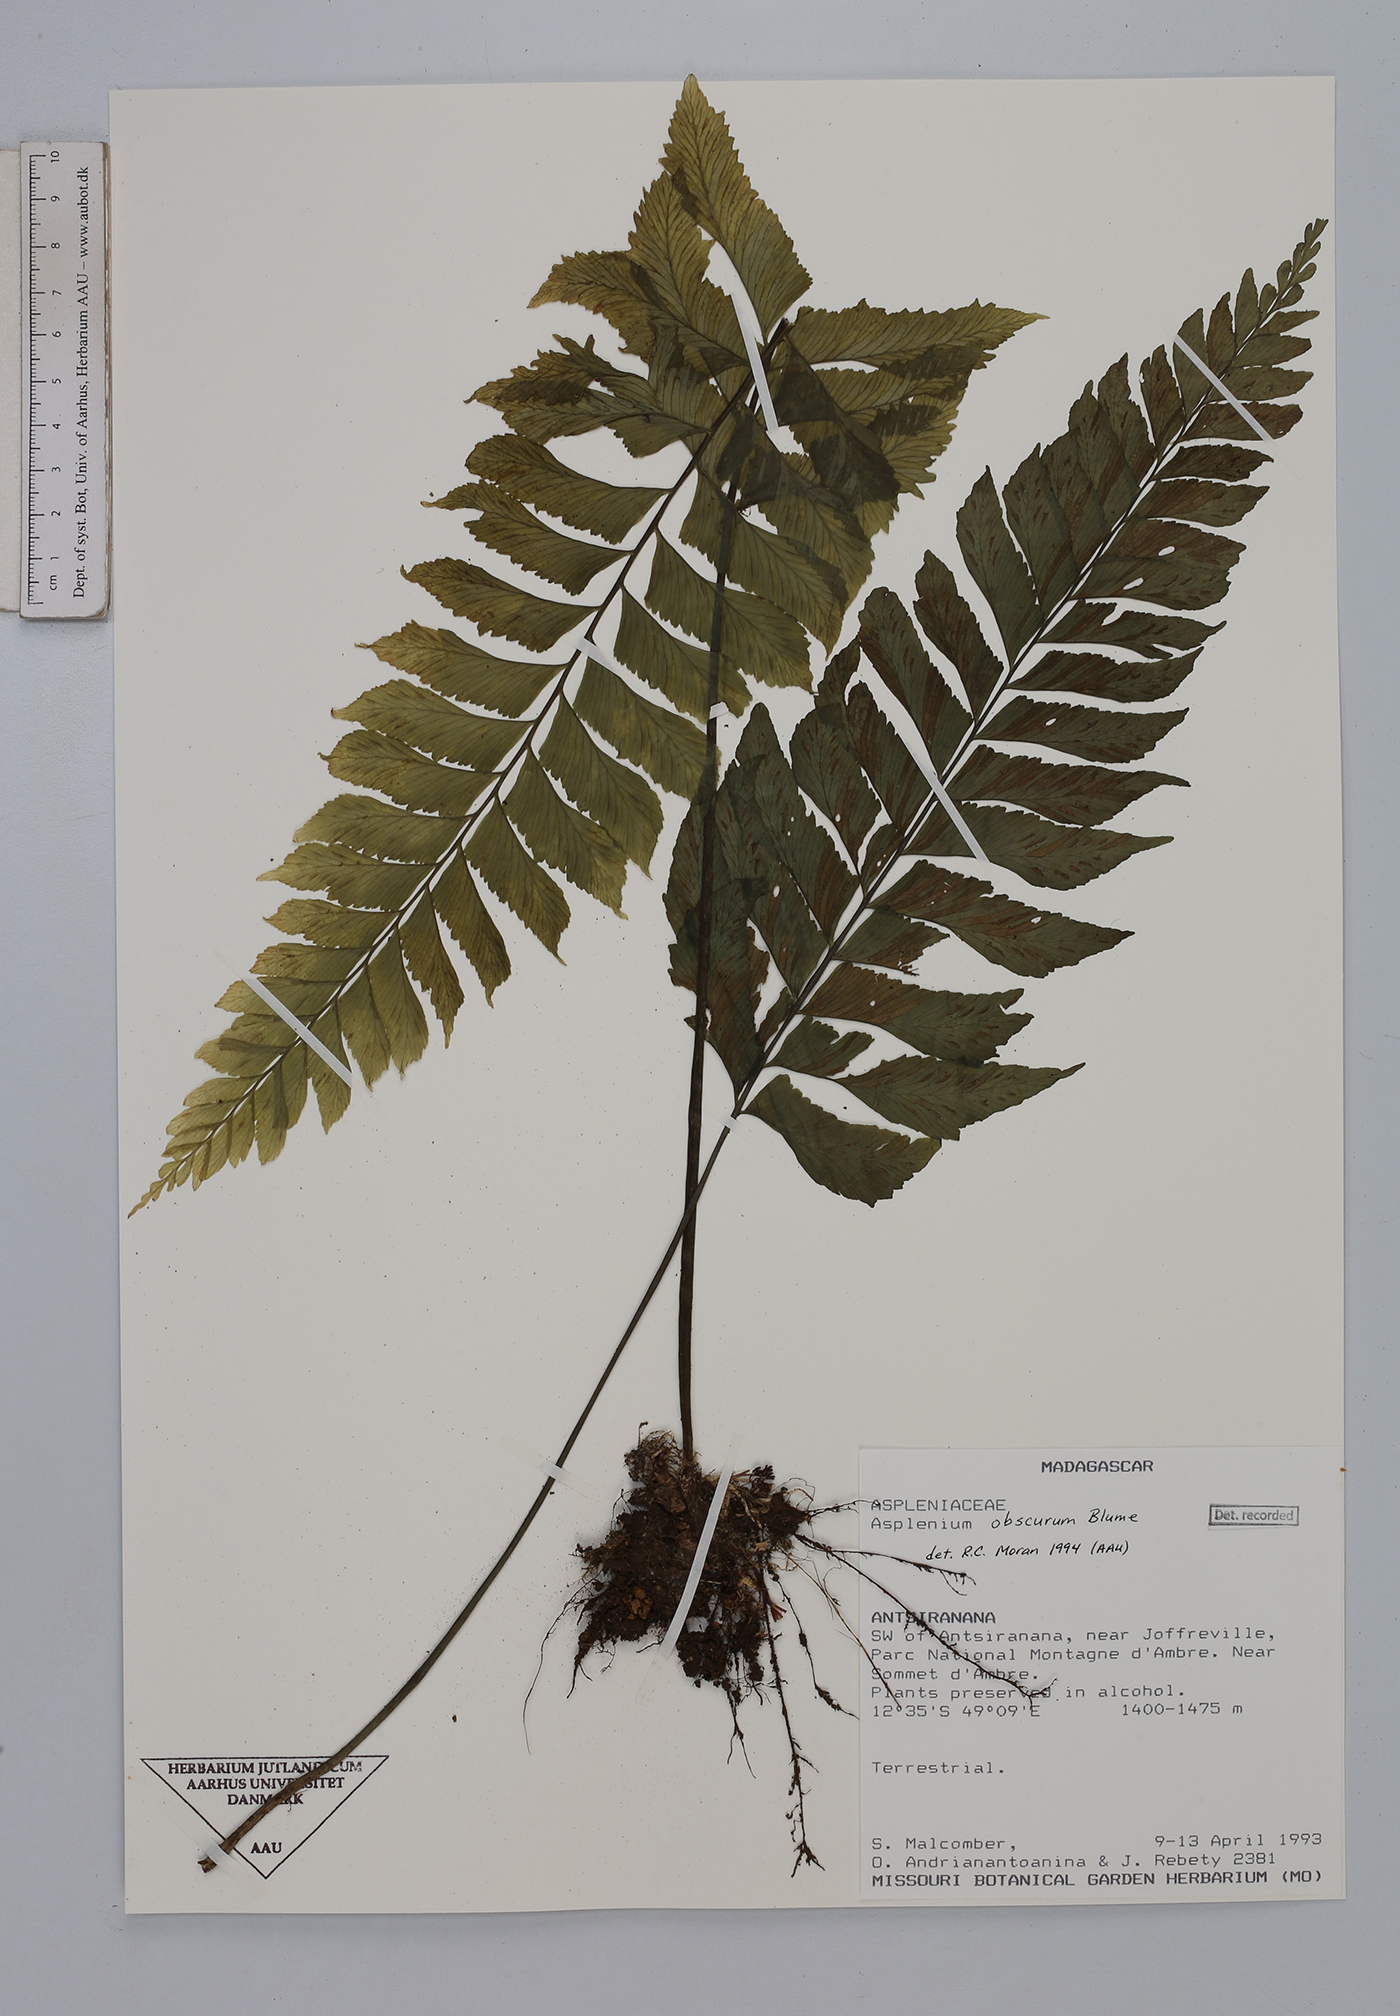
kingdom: Plantae
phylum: Tracheophyta
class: Polypodiopsida
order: Polypodiales
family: Aspleniaceae
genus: Hymenasplenium
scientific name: Hymenasplenium obscurum
